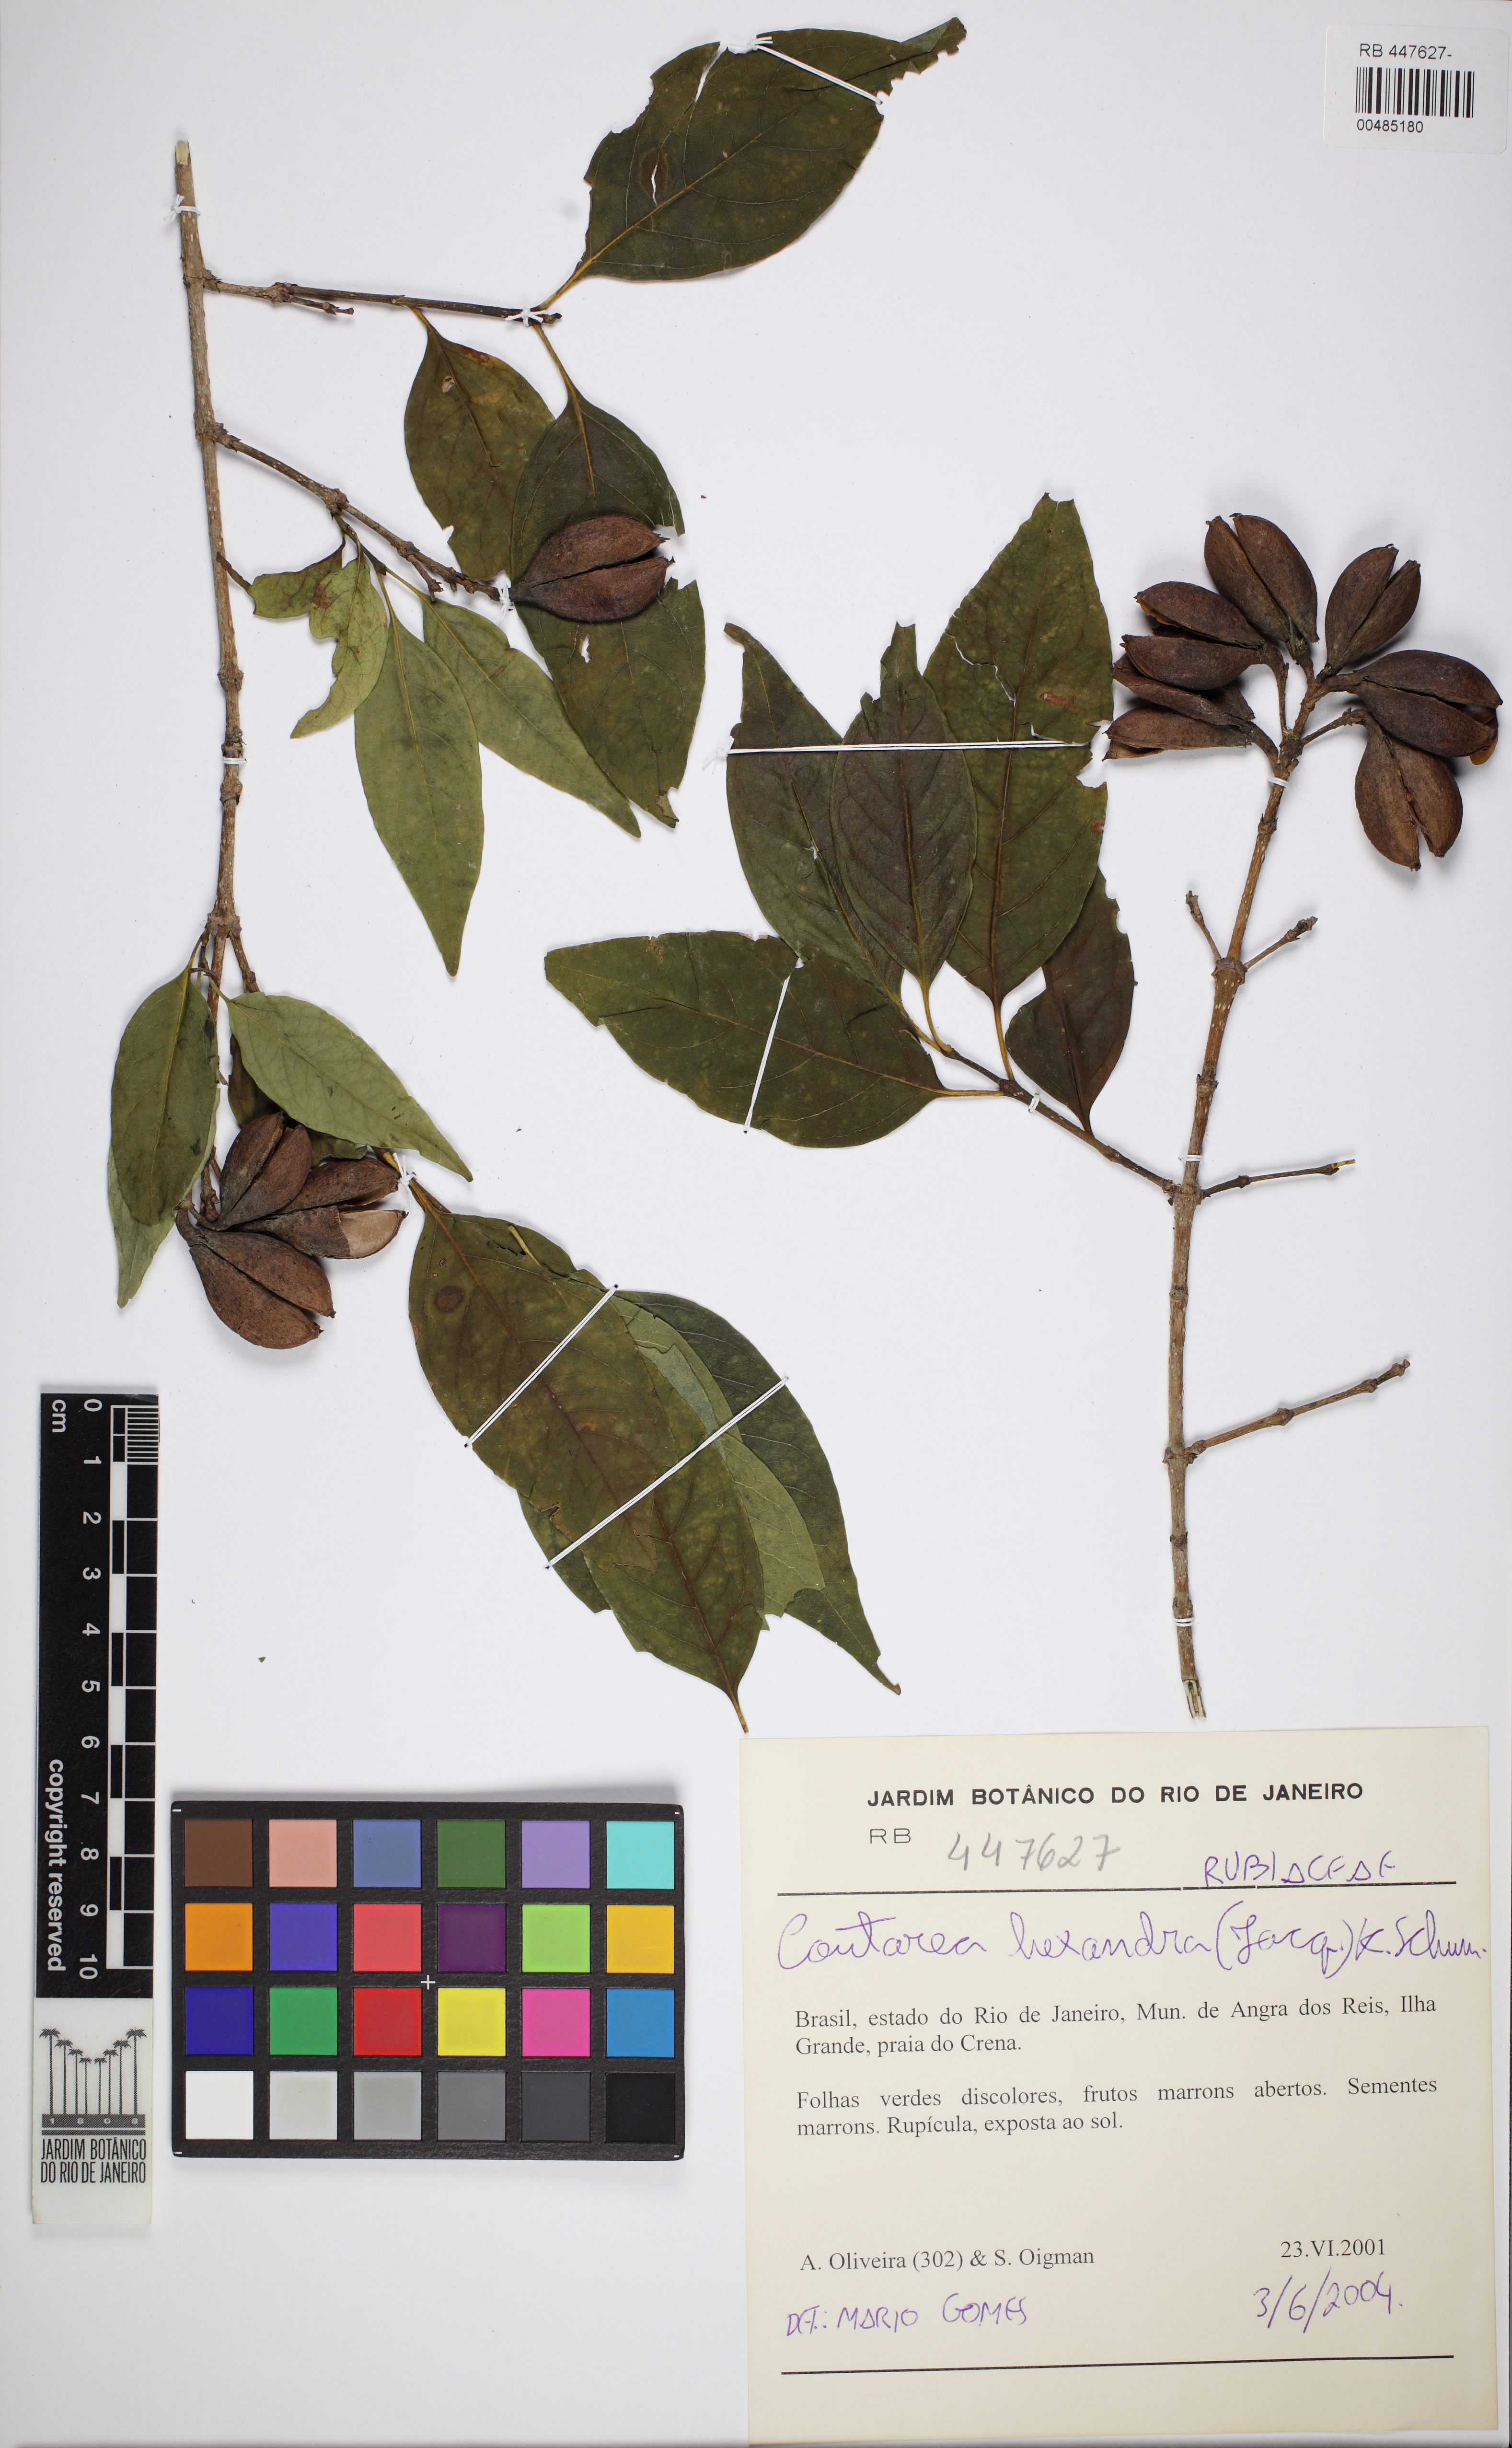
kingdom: Plantae
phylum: Tracheophyta
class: Magnoliopsida
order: Gentianales
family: Rubiaceae
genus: Coutarea
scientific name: Coutarea hexandra
